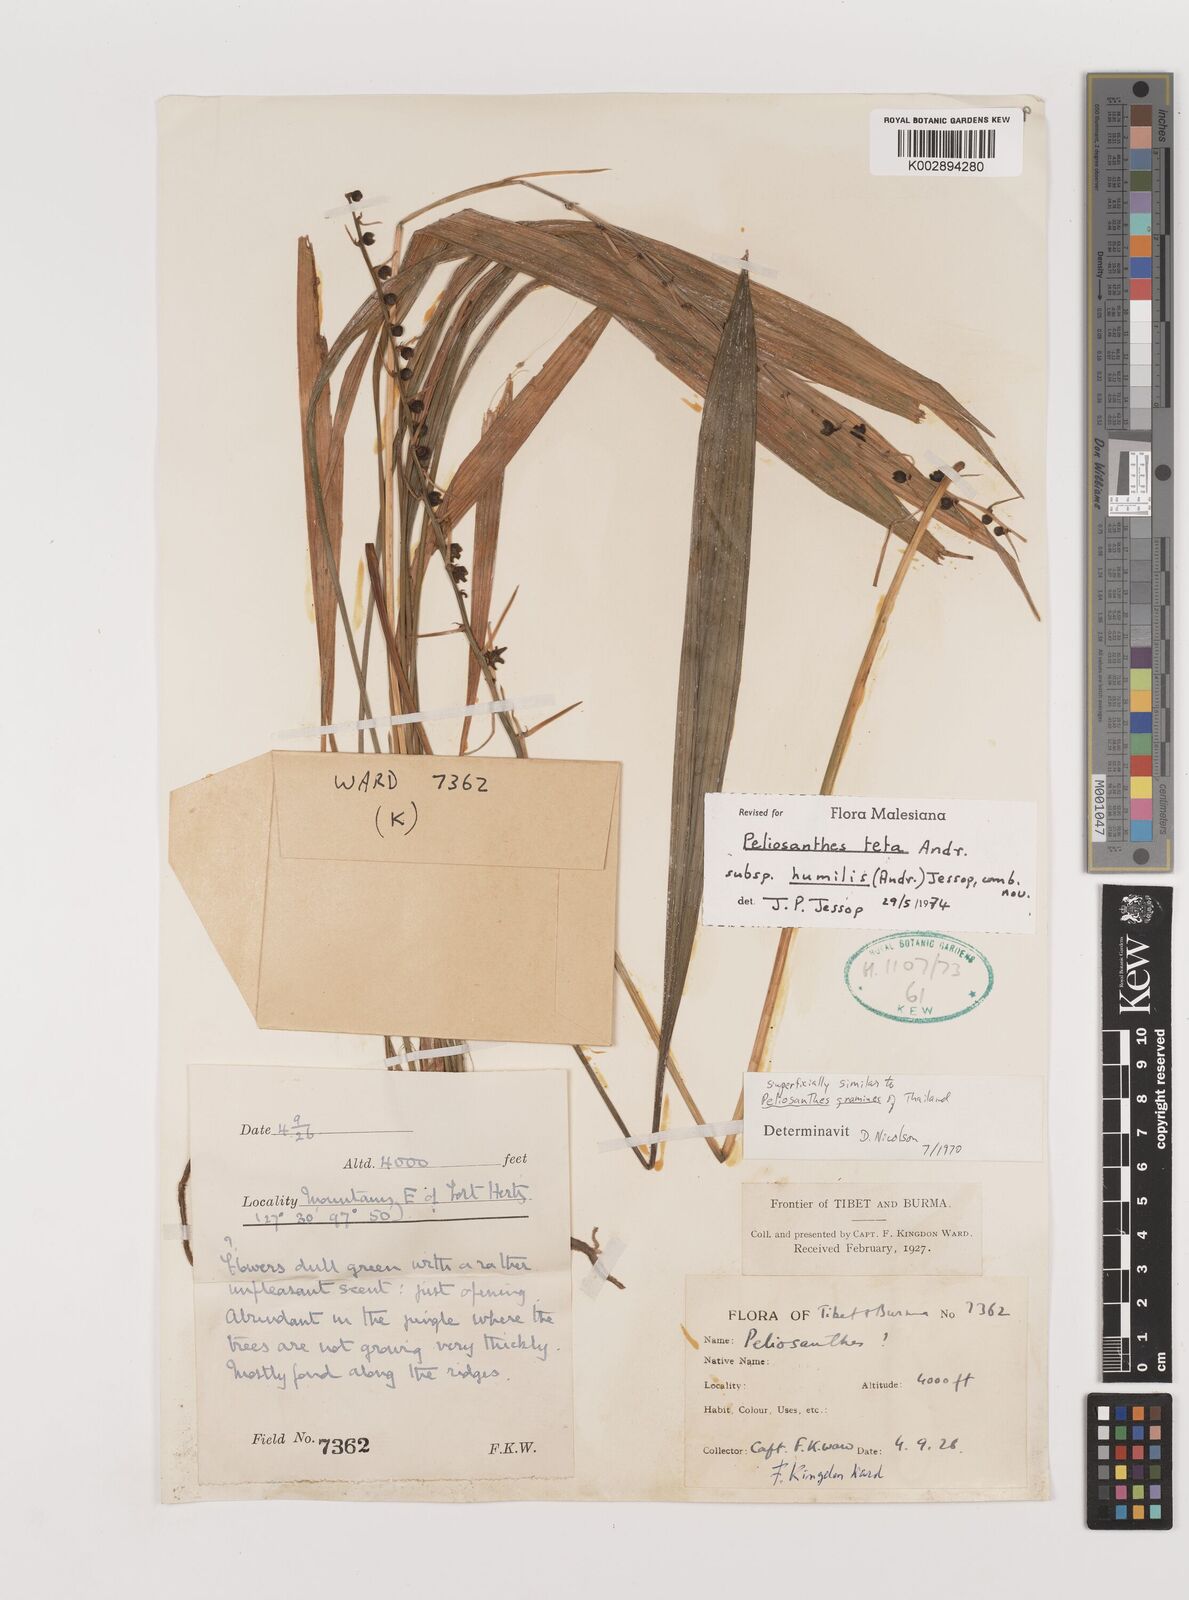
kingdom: Plantae
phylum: Tracheophyta
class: Liliopsida
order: Asparagales
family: Asparagaceae
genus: Peliosanthes
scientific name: Peliosanthes teta
